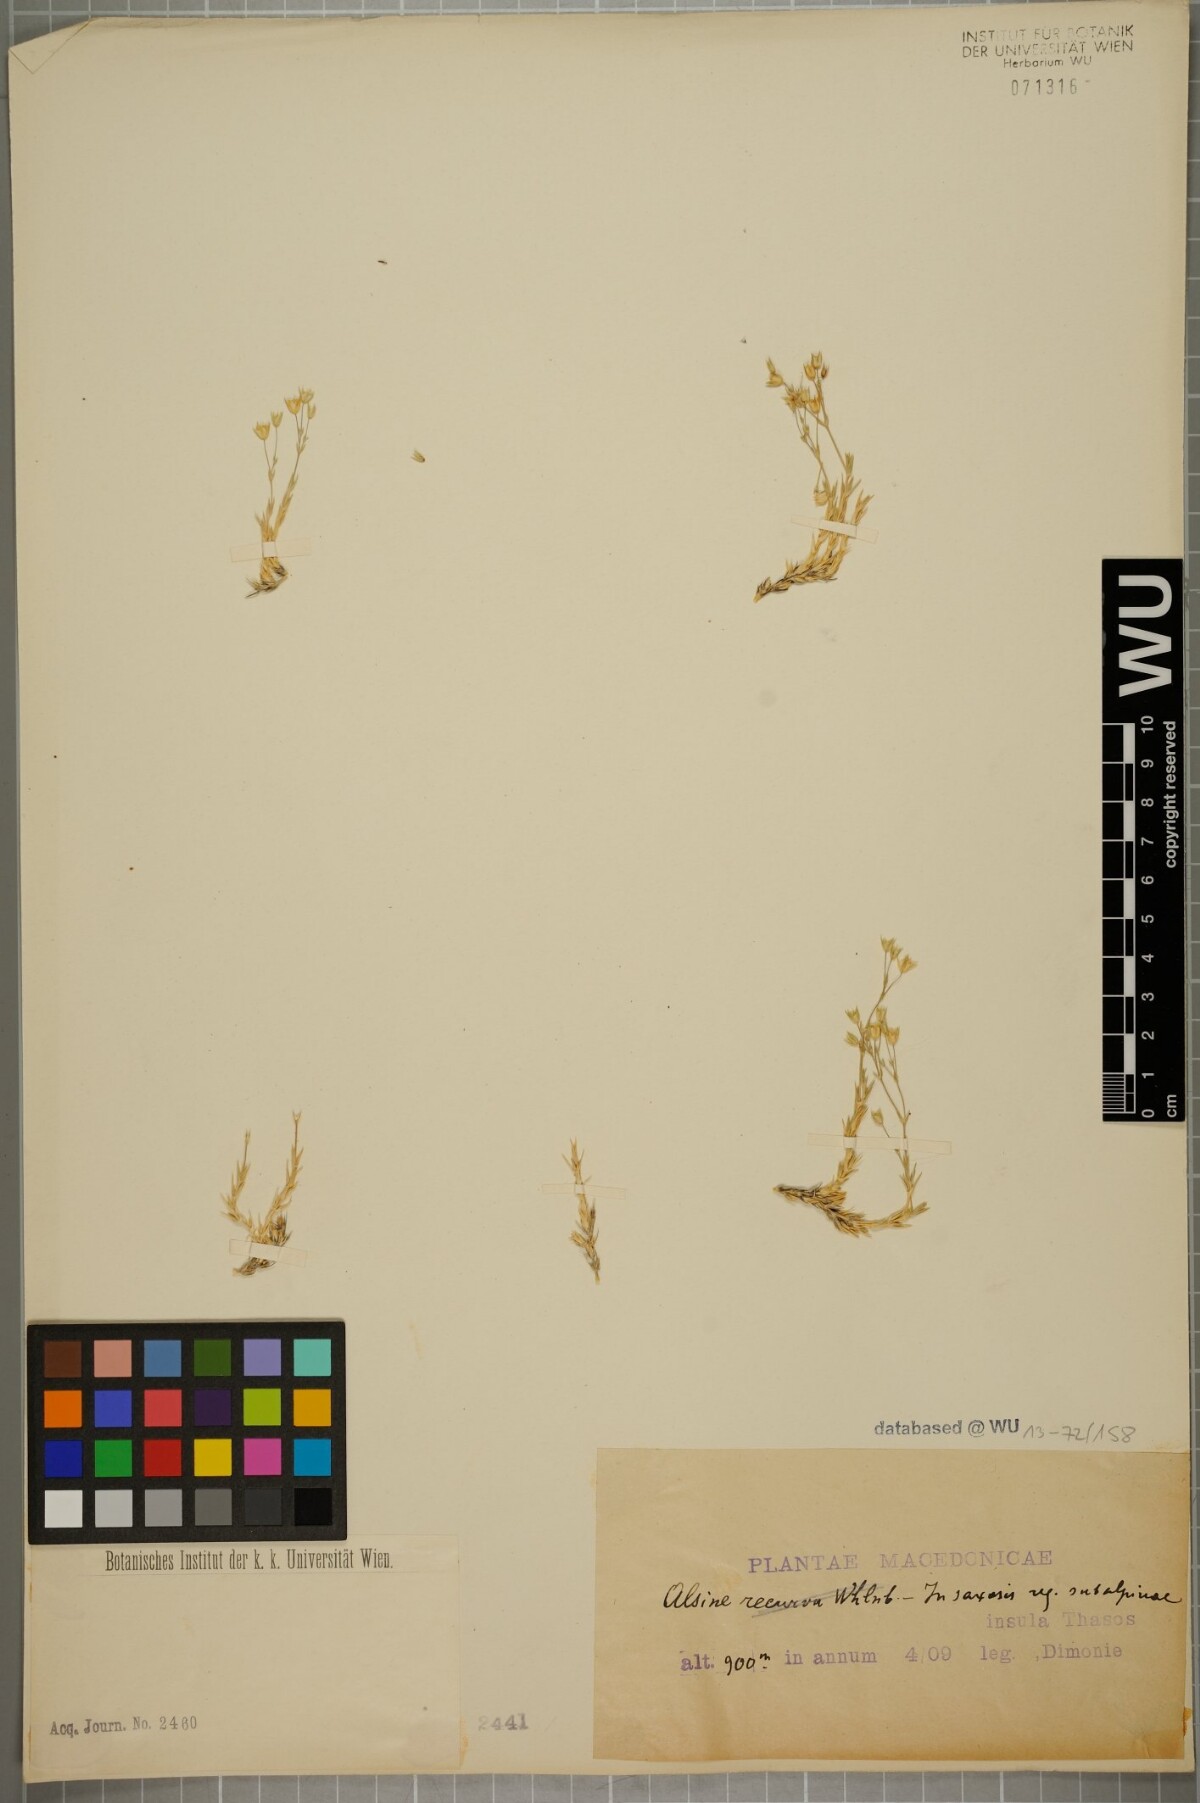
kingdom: Plantae
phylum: Tracheophyta
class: Magnoliopsida
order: Caryophyllales
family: Caryophyllaceae
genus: Sabulina
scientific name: Sabulina verna
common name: Spring sandwort
